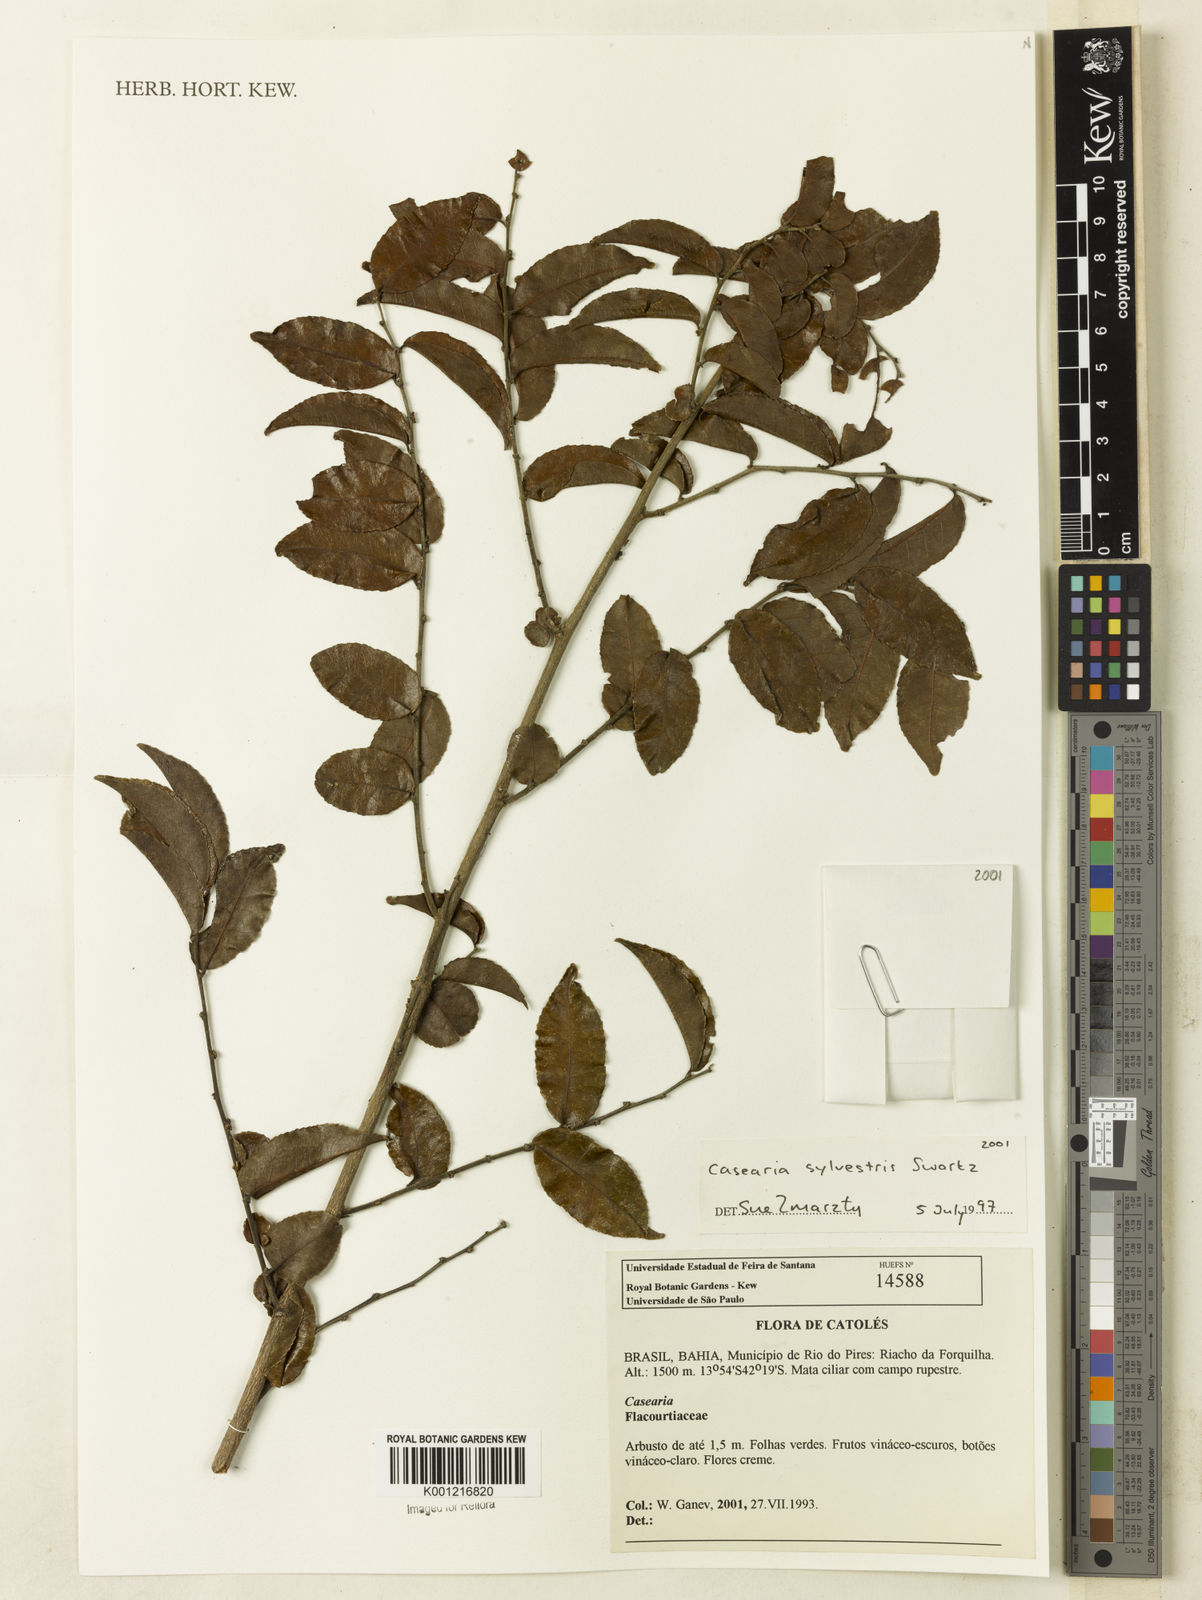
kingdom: Plantae
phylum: Tracheophyta
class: Magnoliopsida
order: Malpighiales
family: Salicaceae
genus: Casearia
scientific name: Casearia sylvestris
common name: Wild sage
